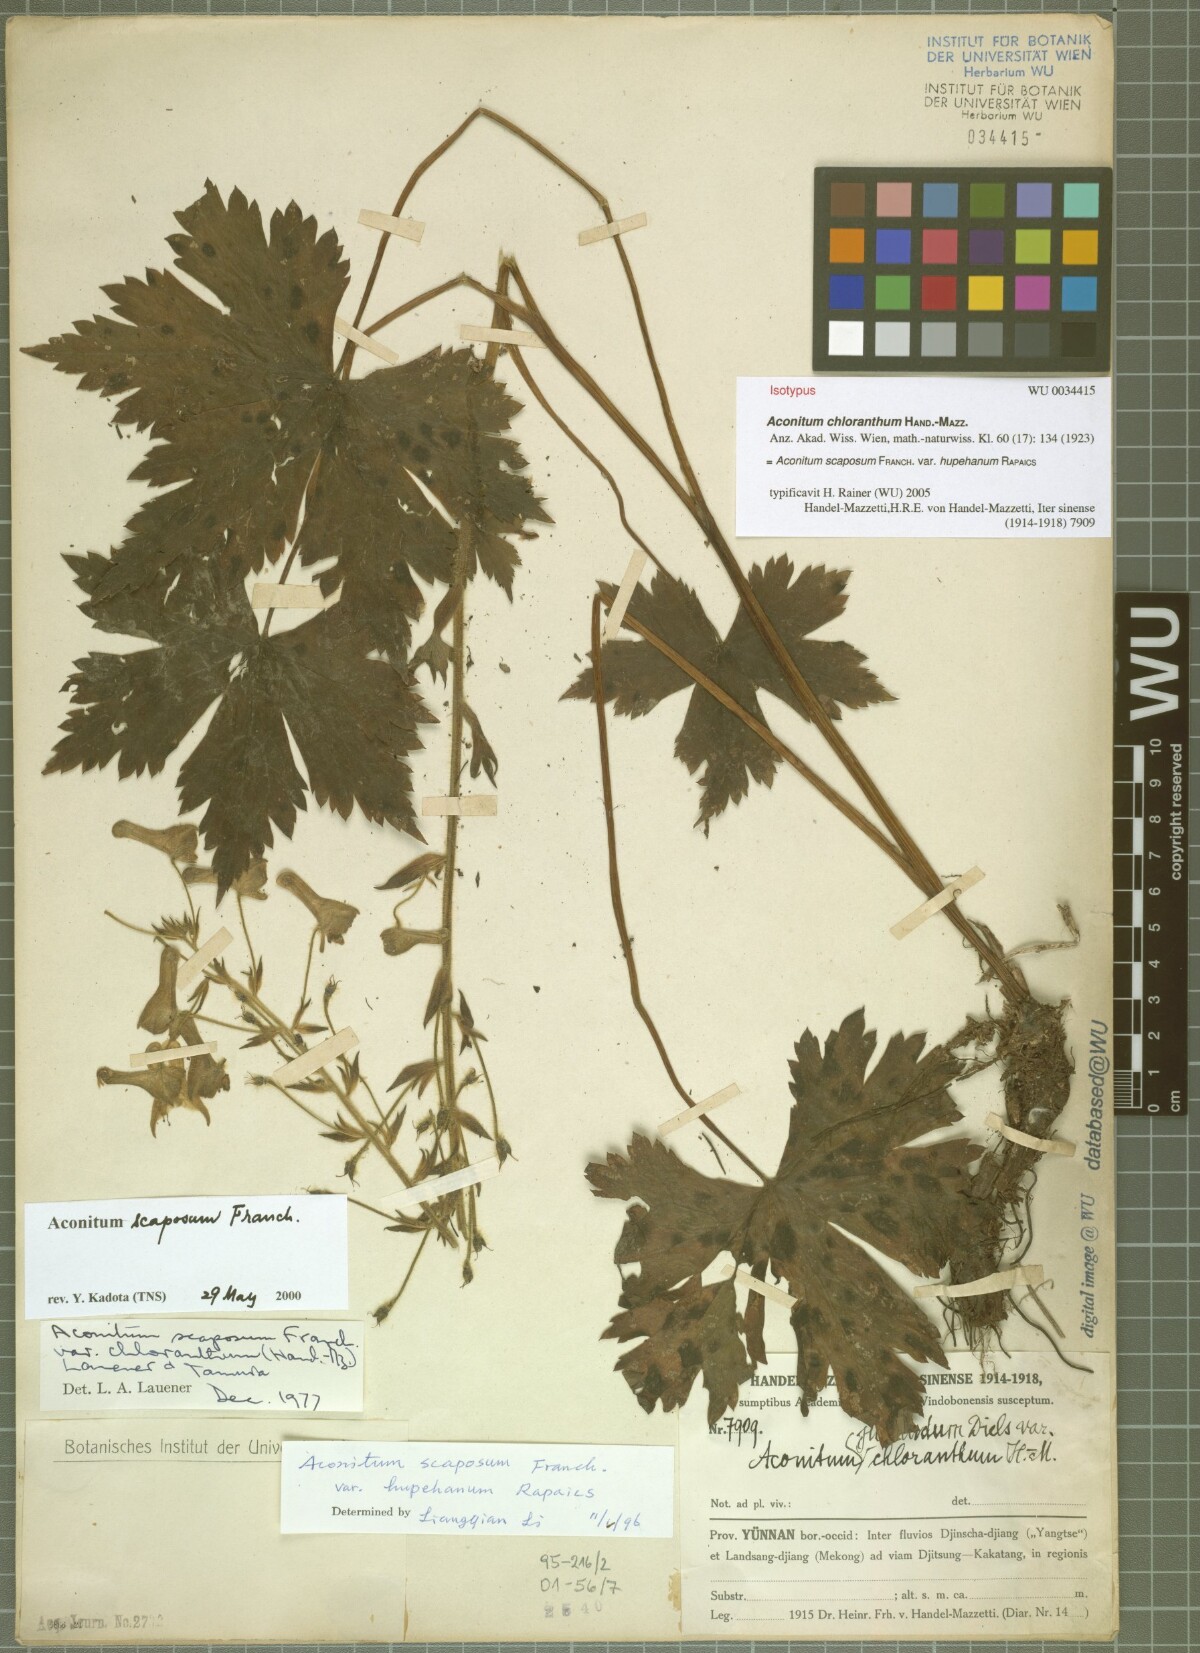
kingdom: Plantae
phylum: Tracheophyta
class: Magnoliopsida
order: Ranunculales
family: Ranunculaceae
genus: Aconitum
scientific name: Aconitum scaposum
